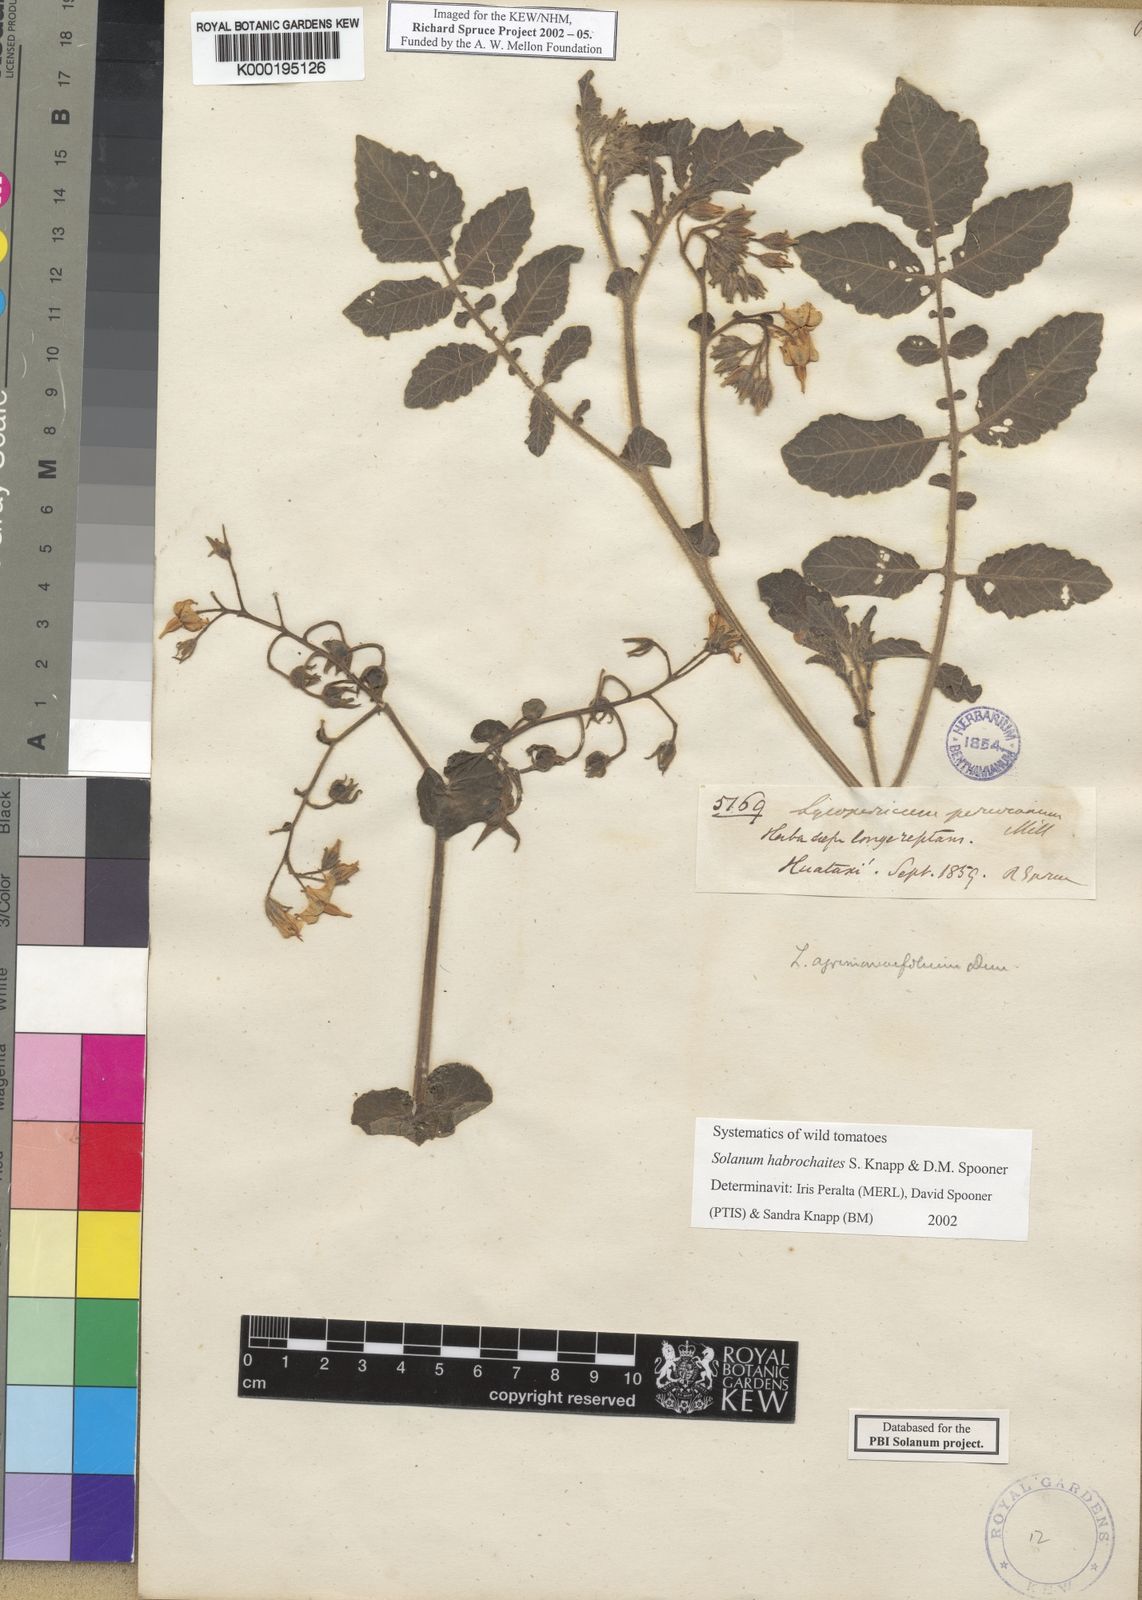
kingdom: Plantae
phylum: Tracheophyta
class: Magnoliopsida
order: Solanales
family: Solanaceae
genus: Solanum
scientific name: Solanum habrochaites
